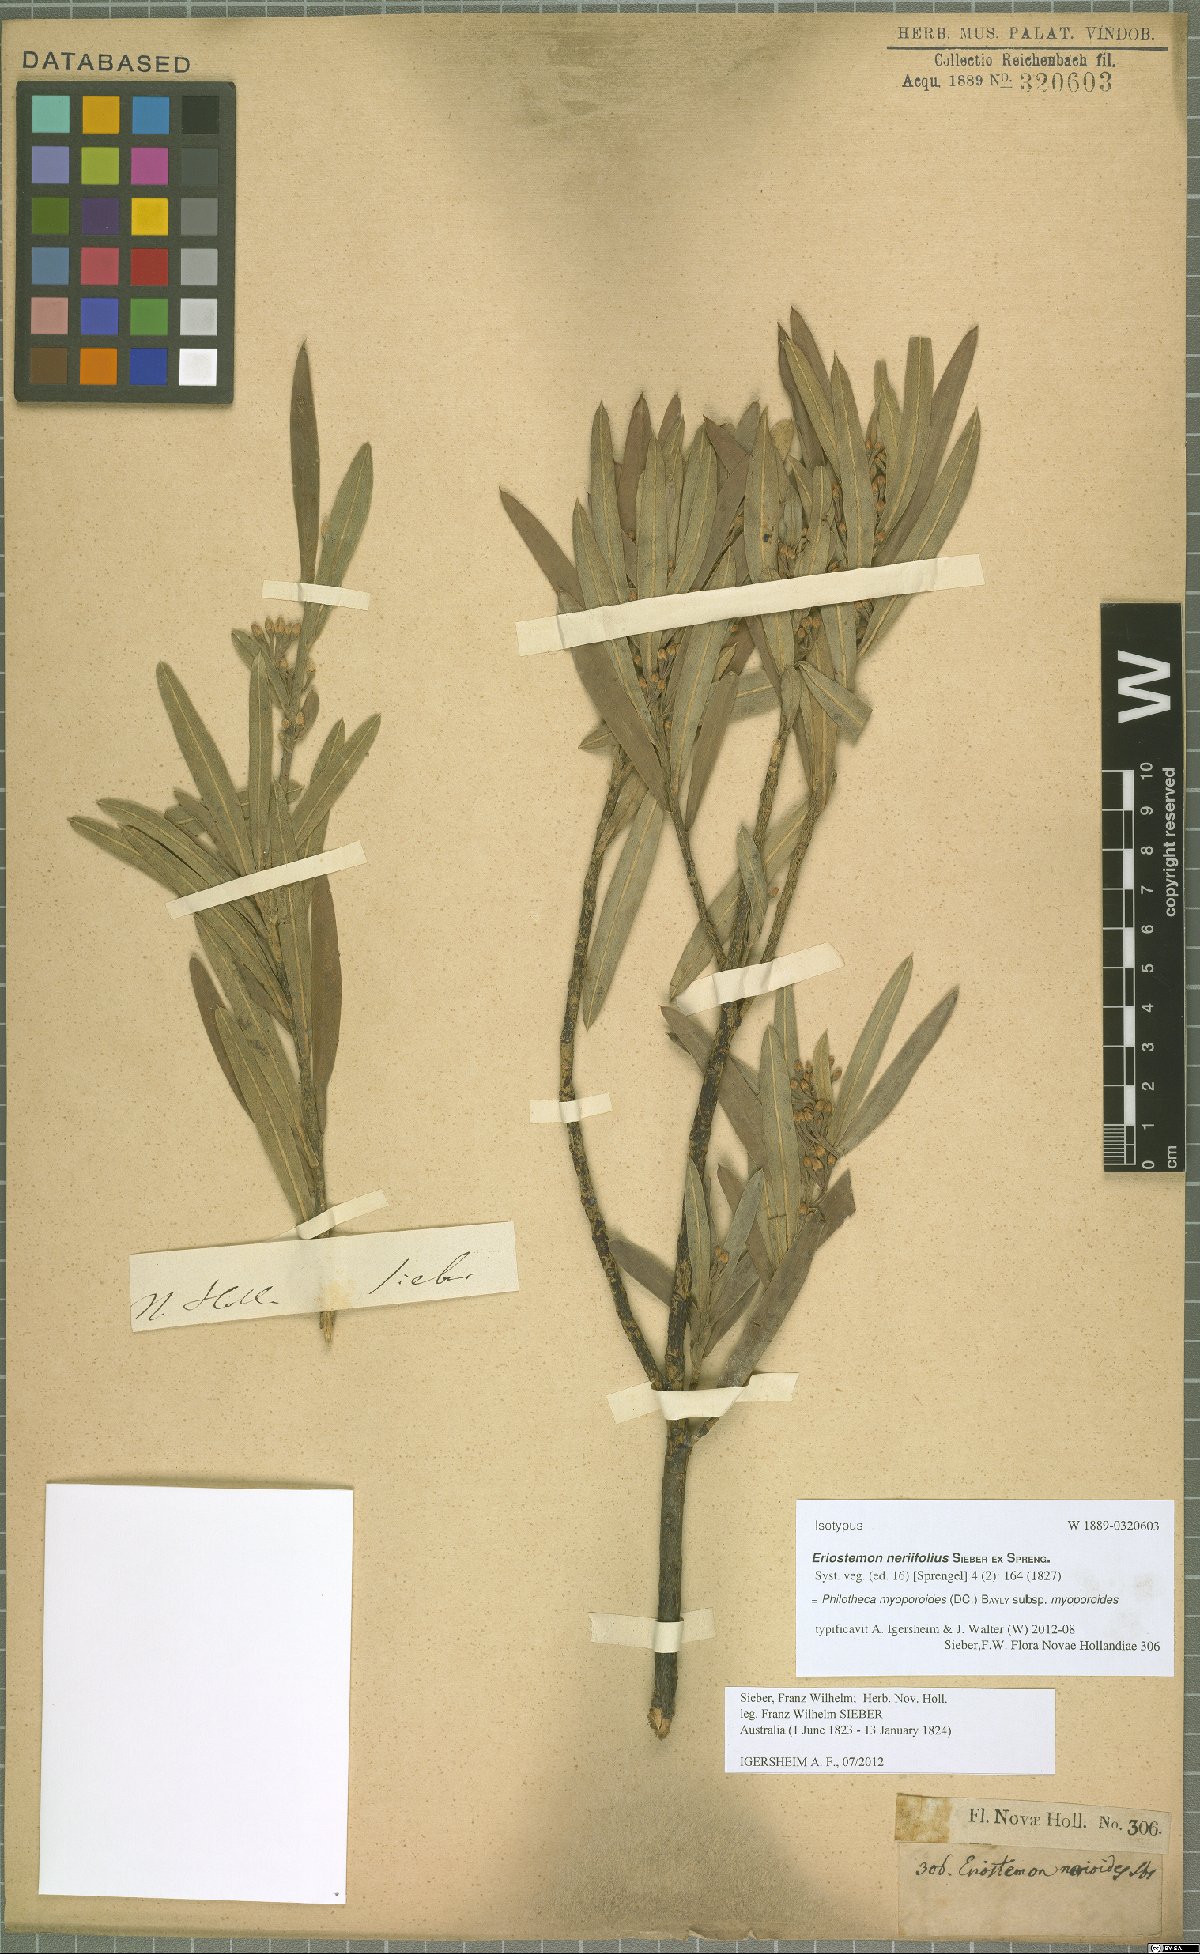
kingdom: Plantae
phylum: Tracheophyta
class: Magnoliopsida
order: Sapindales
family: Rutaceae
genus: Philotheca
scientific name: Philotheca myoporoides
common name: Longleaf waxflower
